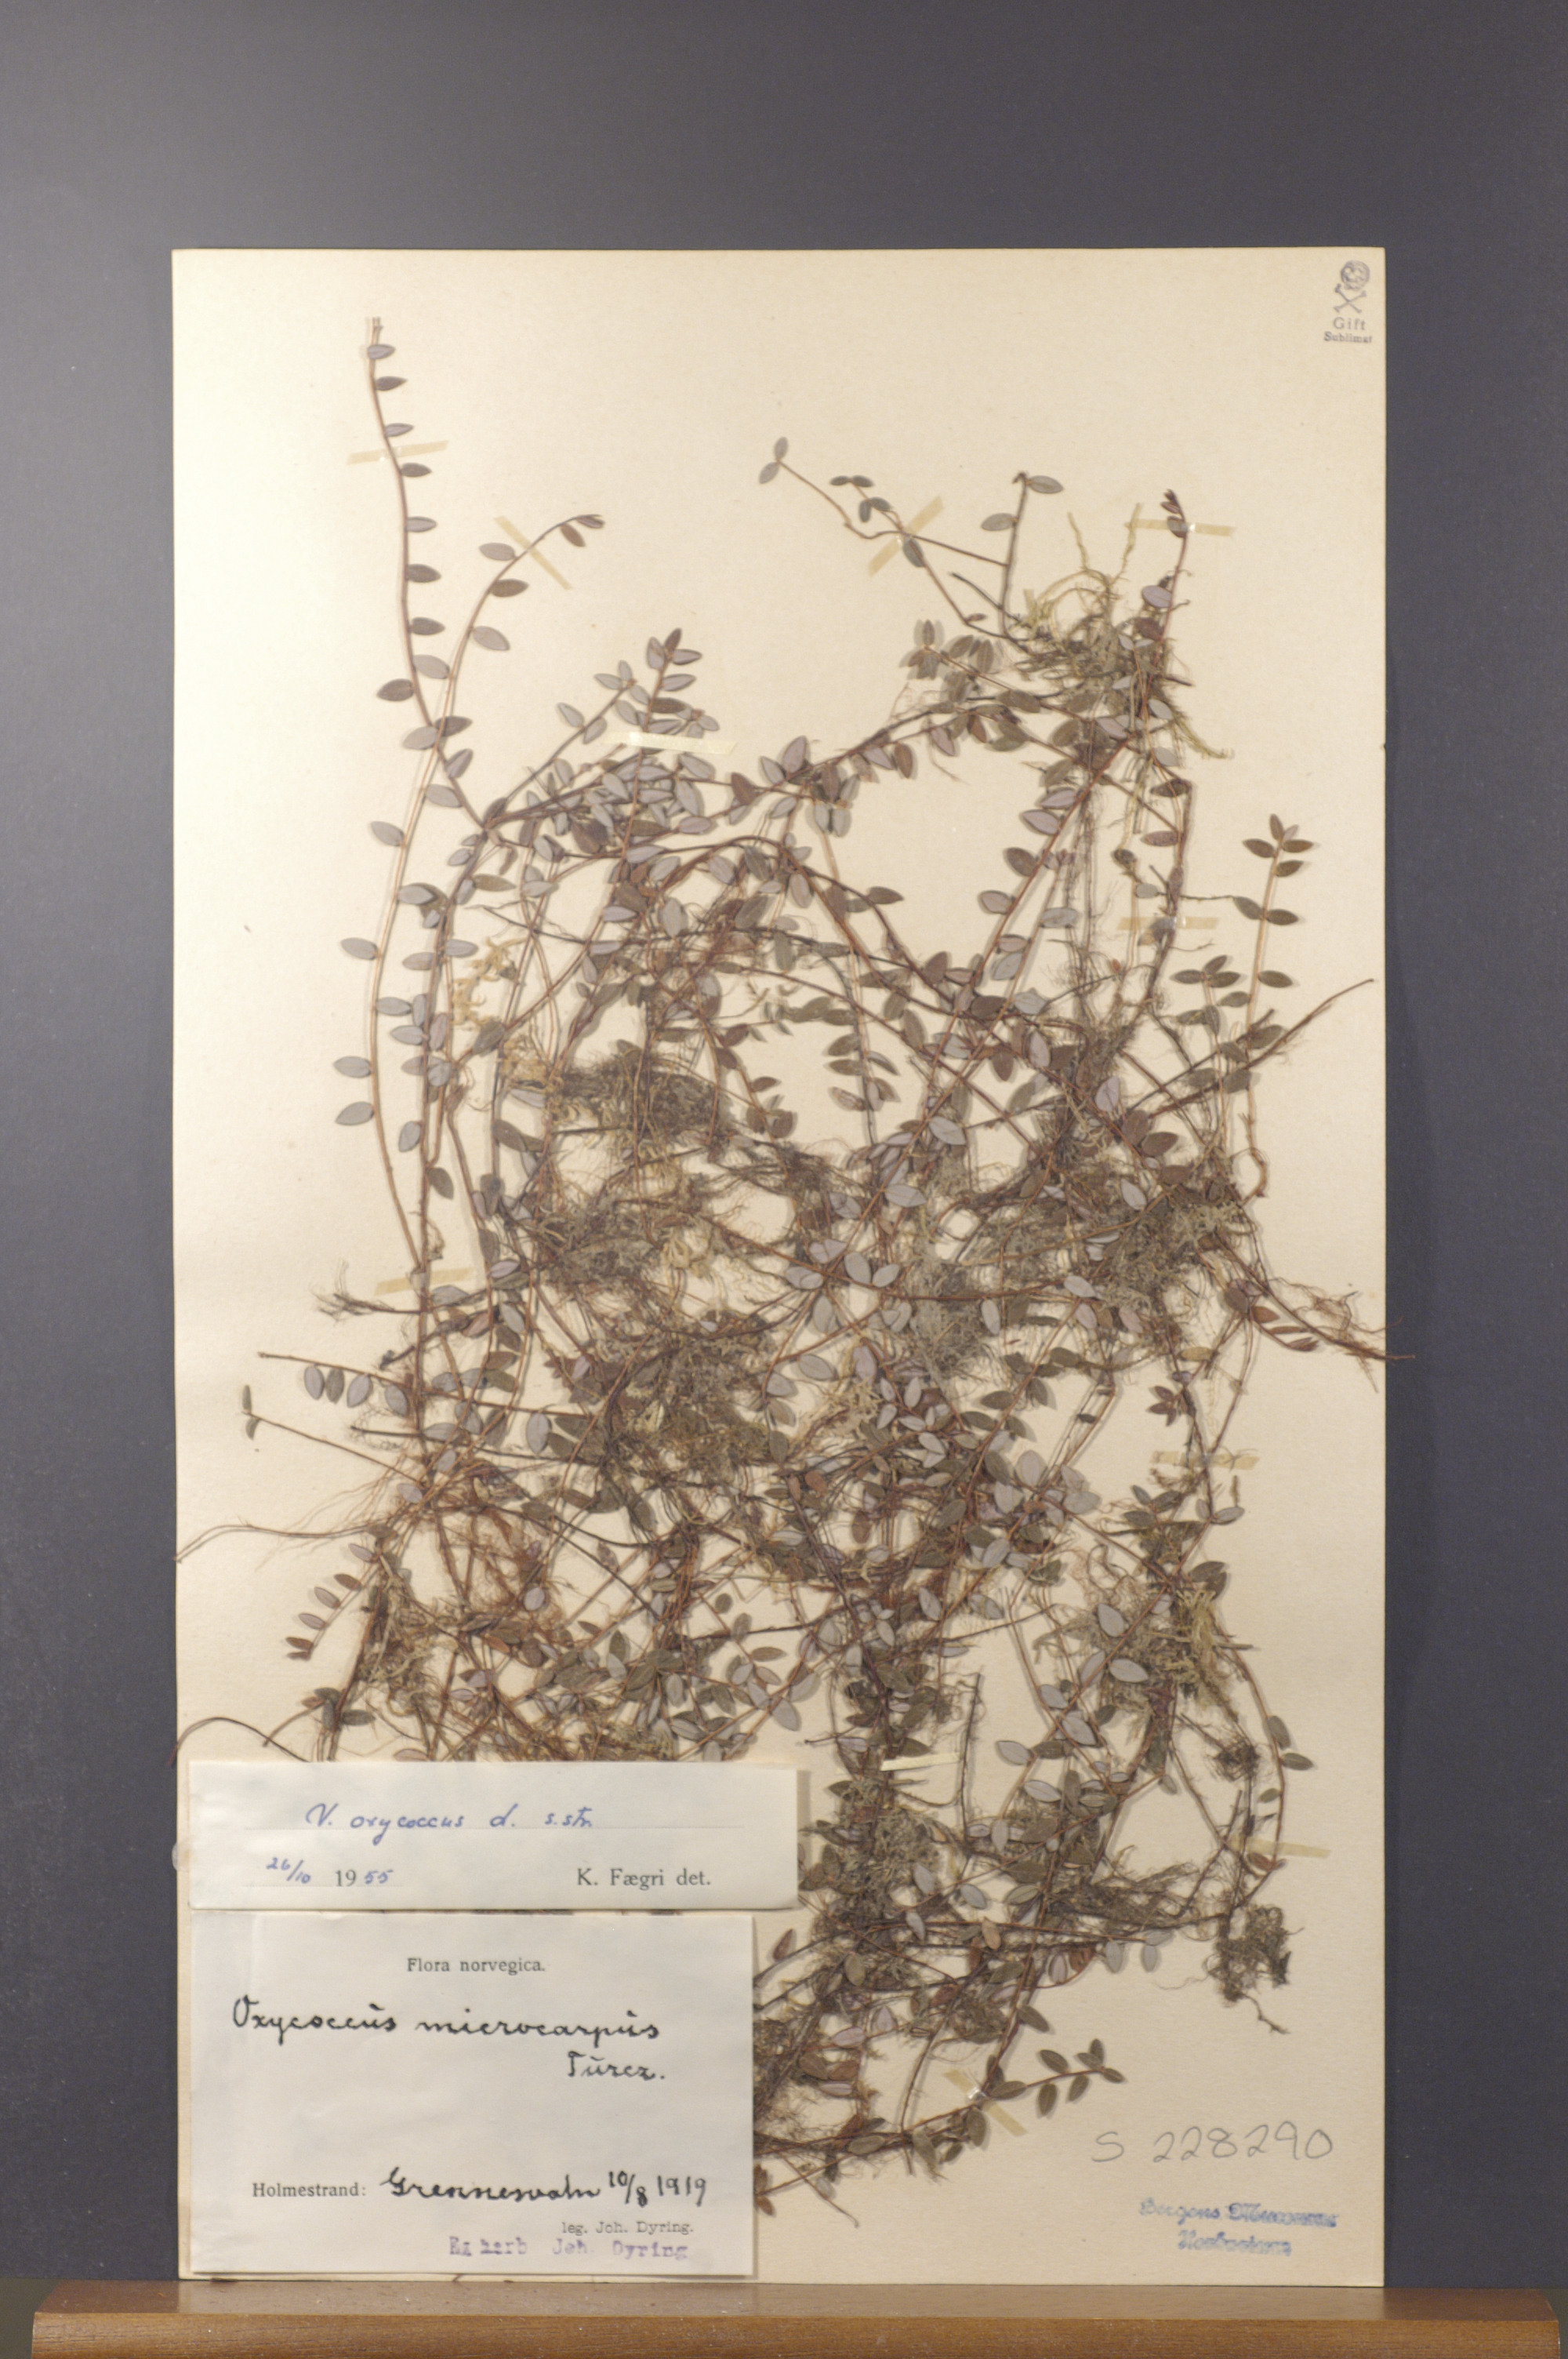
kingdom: Plantae
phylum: Tracheophyta
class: Magnoliopsida
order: Ericales
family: Ericaceae
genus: Vaccinium
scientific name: Vaccinium oxycoccos
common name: Cranberry
